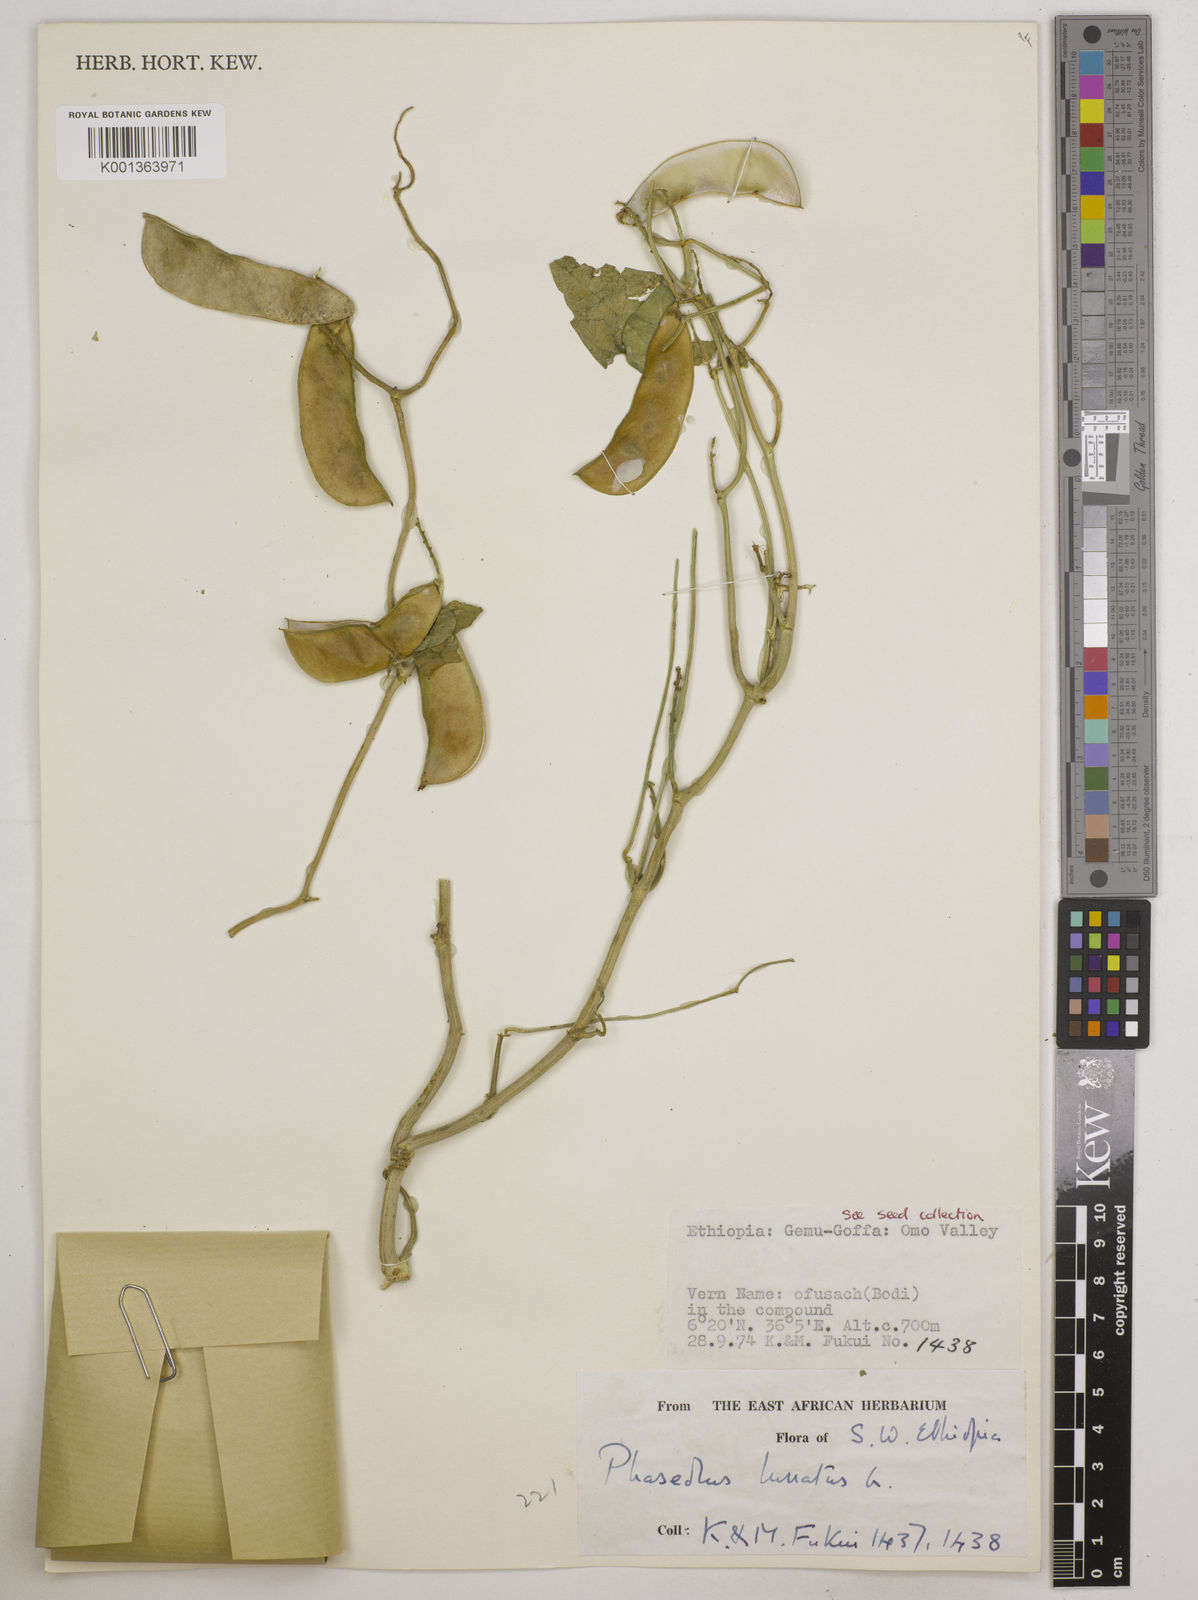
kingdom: Plantae
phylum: Tracheophyta
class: Magnoliopsida
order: Fabales
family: Fabaceae
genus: Phaseolus
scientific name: Phaseolus lunatus
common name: Sieva bean
